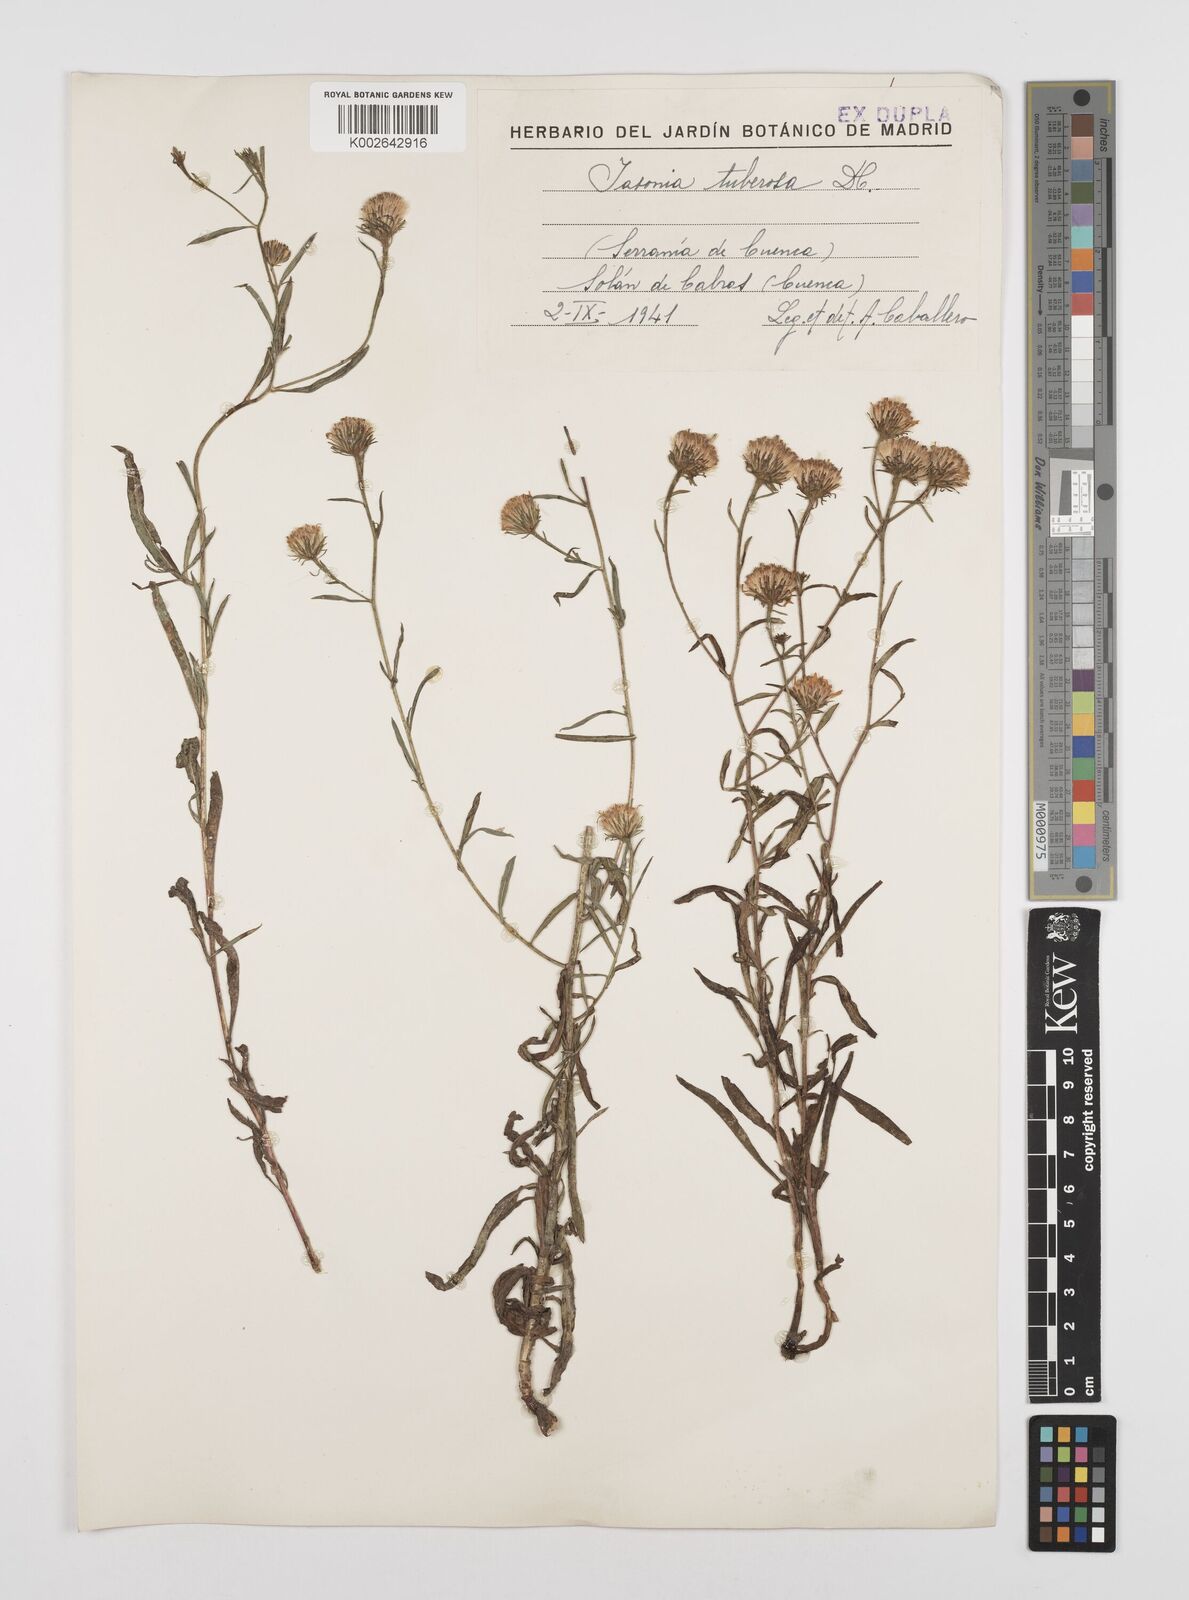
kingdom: Plantae
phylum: Tracheophyta
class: Magnoliopsida
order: Asterales
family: Asteraceae
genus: Jasonia
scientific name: Jasonia tuberosa
